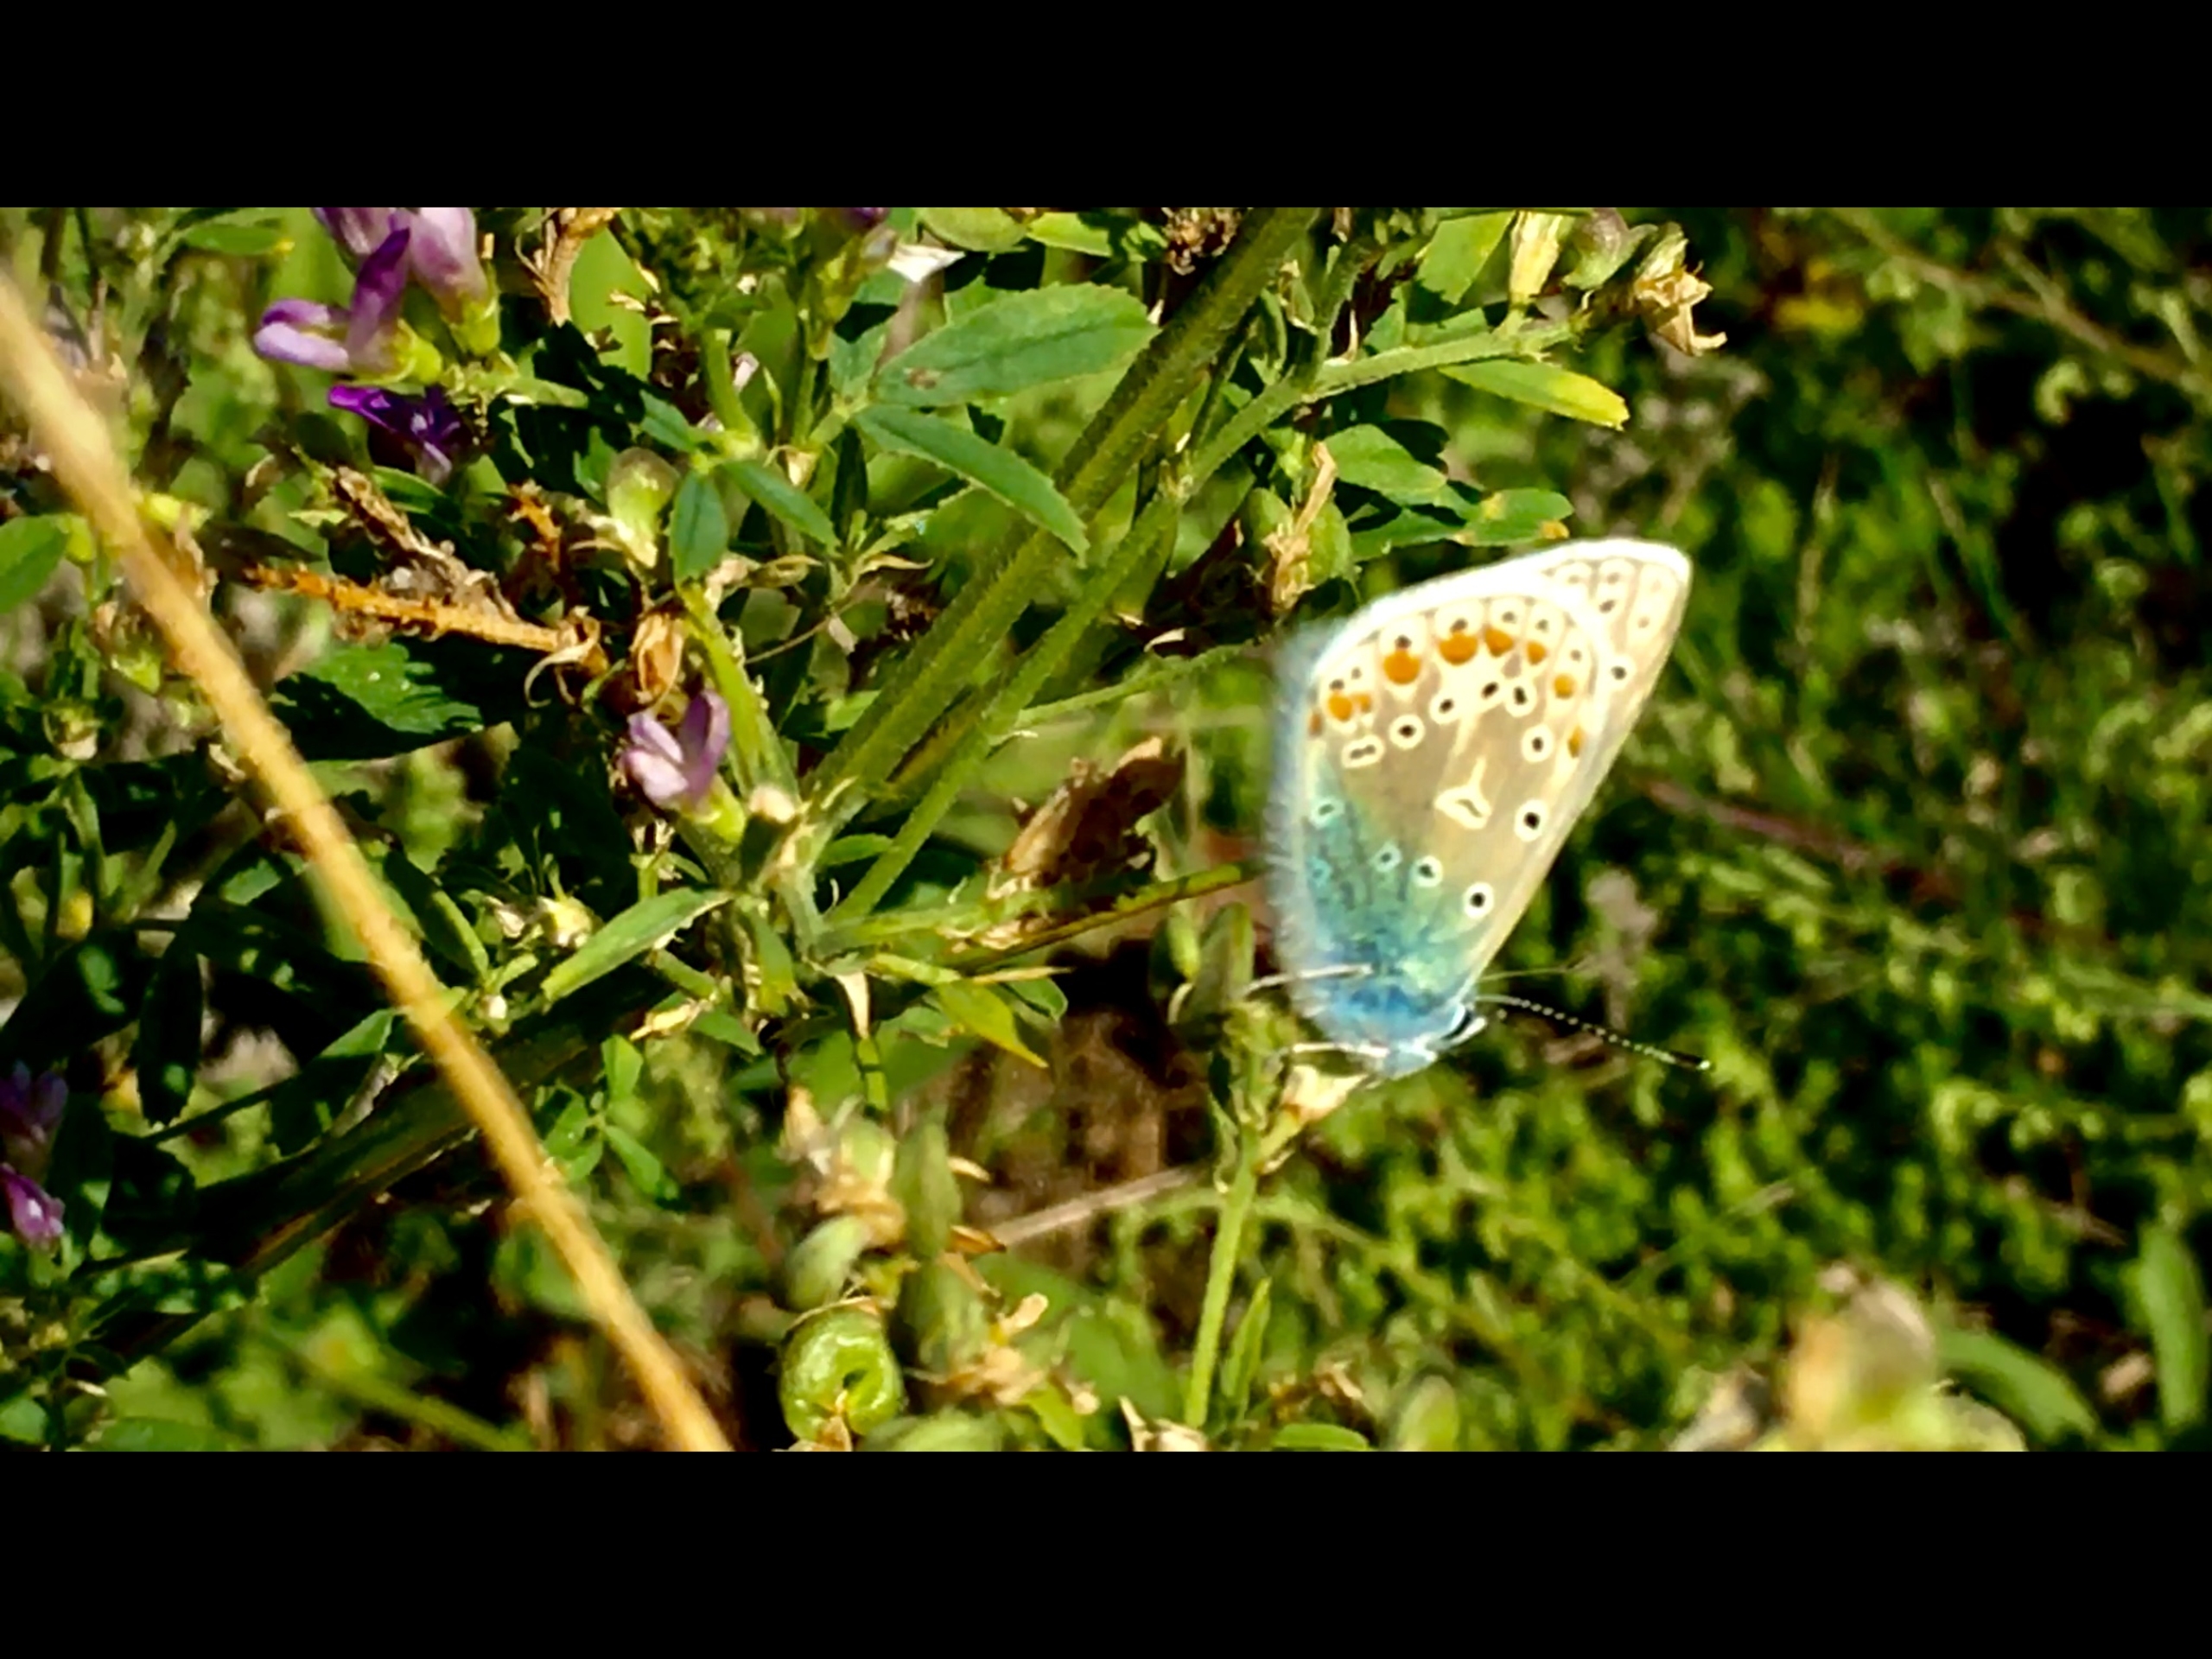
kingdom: Animalia
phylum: Arthropoda
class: Insecta
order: Lepidoptera
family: Lycaenidae
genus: Polyommatus
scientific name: Polyommatus icarus
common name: Almindelig blåfugl
